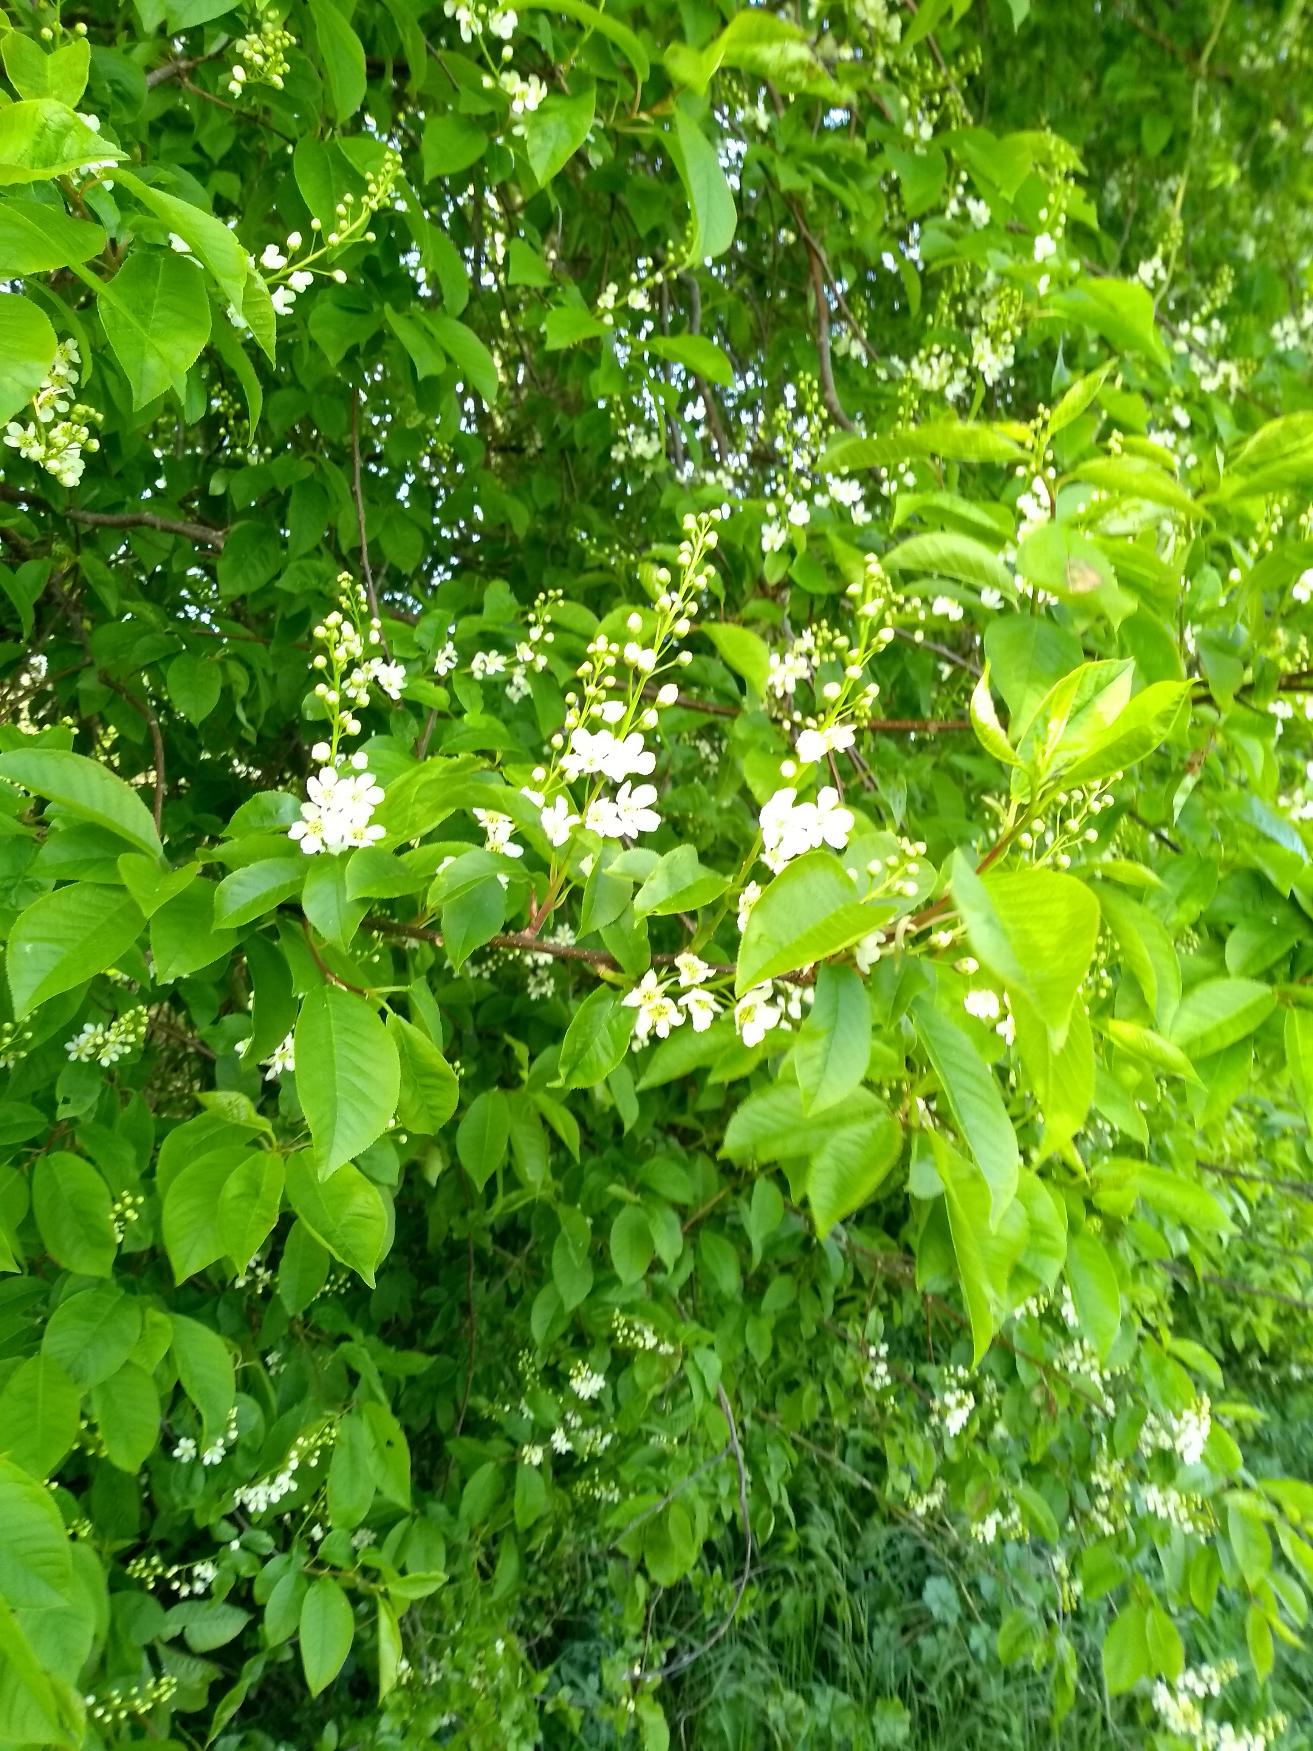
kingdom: Plantae
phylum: Tracheophyta
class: Magnoliopsida
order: Rosales
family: Rosaceae
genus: Prunus
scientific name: Prunus padus
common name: Almindelig hæg
